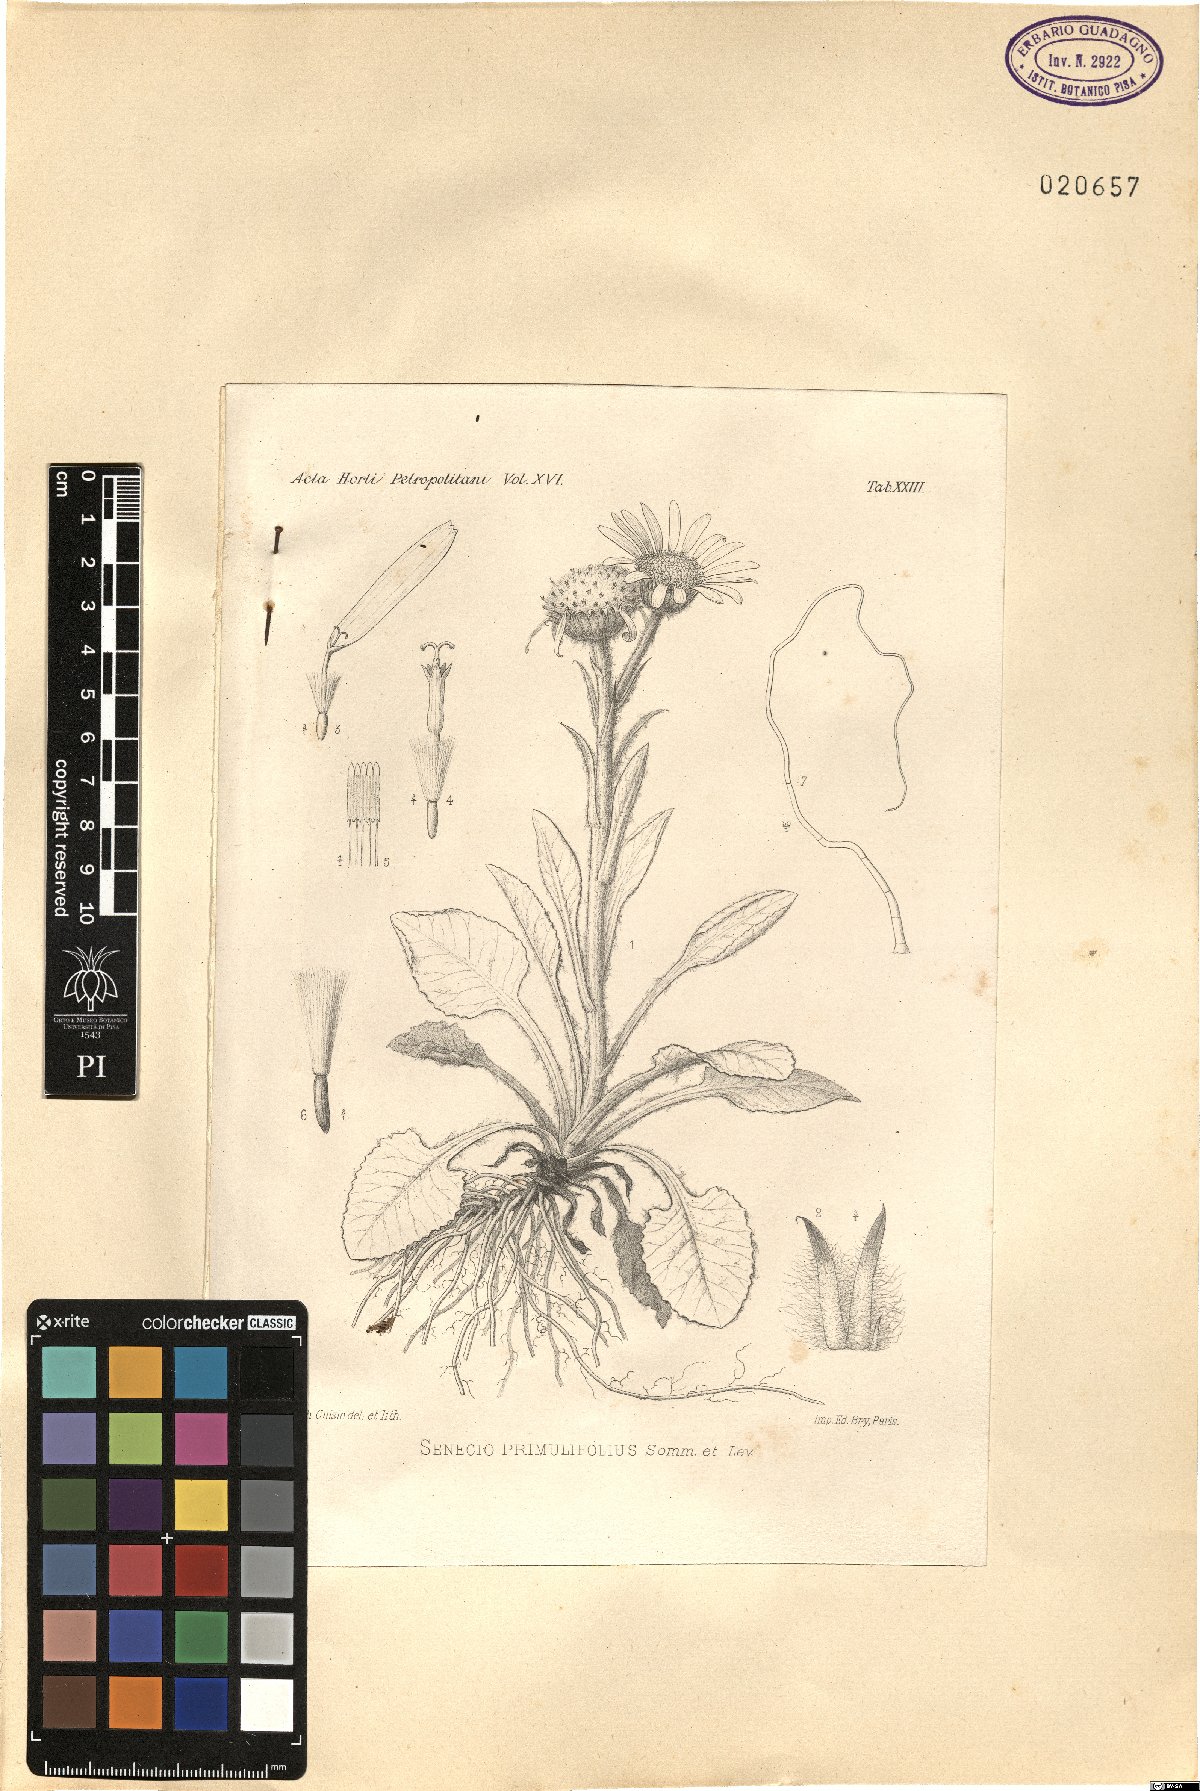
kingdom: Plantae
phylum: Tracheophyta
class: Magnoliopsida
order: Asterales
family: Asteraceae
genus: Ligularia
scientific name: Ligularia vellerea
